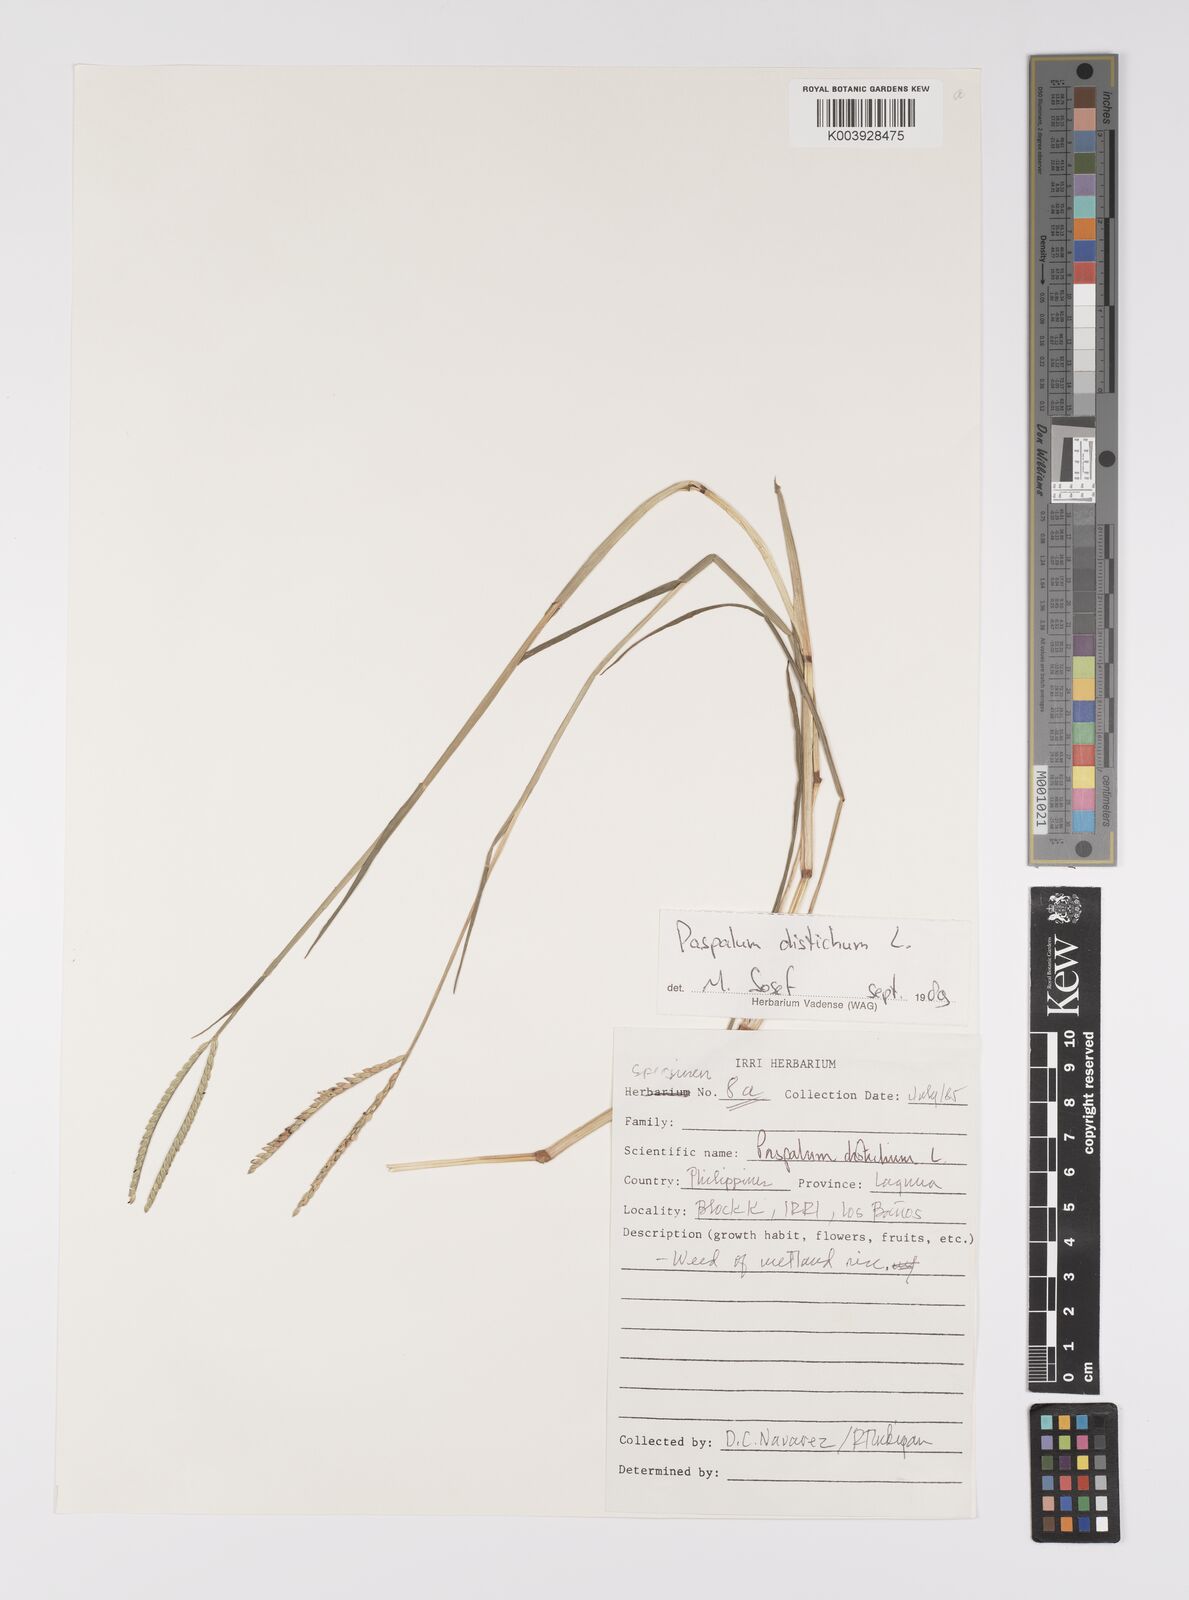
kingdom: Plantae
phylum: Tracheophyta
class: Liliopsida
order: Poales
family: Poaceae
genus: Paspalum
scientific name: Paspalum distichum
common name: Knotgrass
